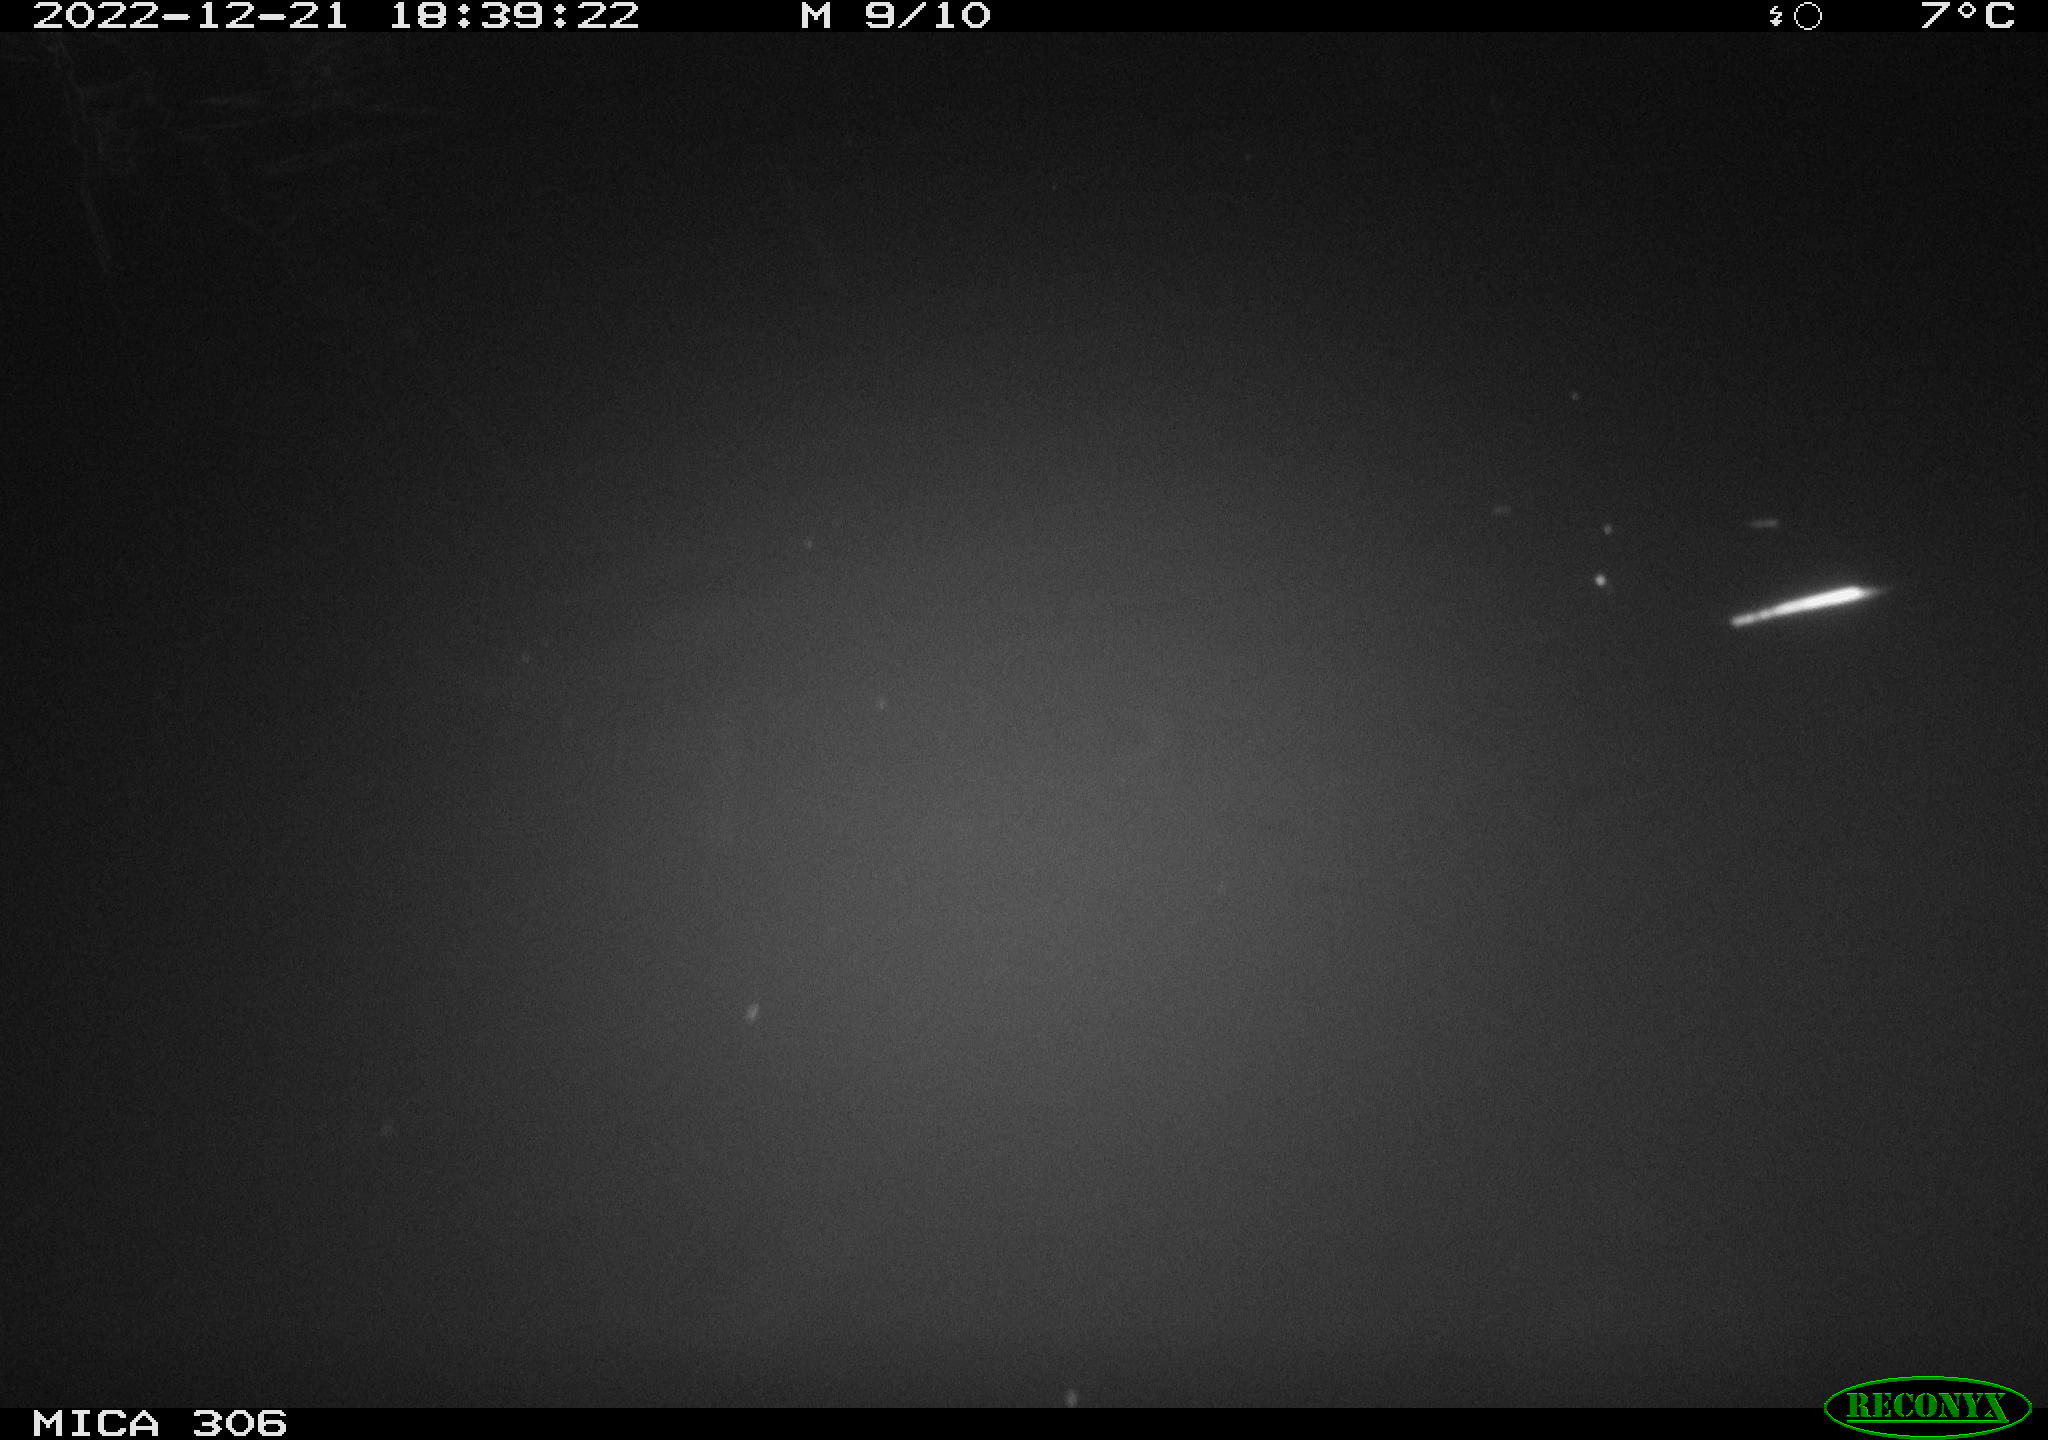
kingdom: Animalia
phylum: Chordata
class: Mammalia
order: Rodentia
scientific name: Rodentia
